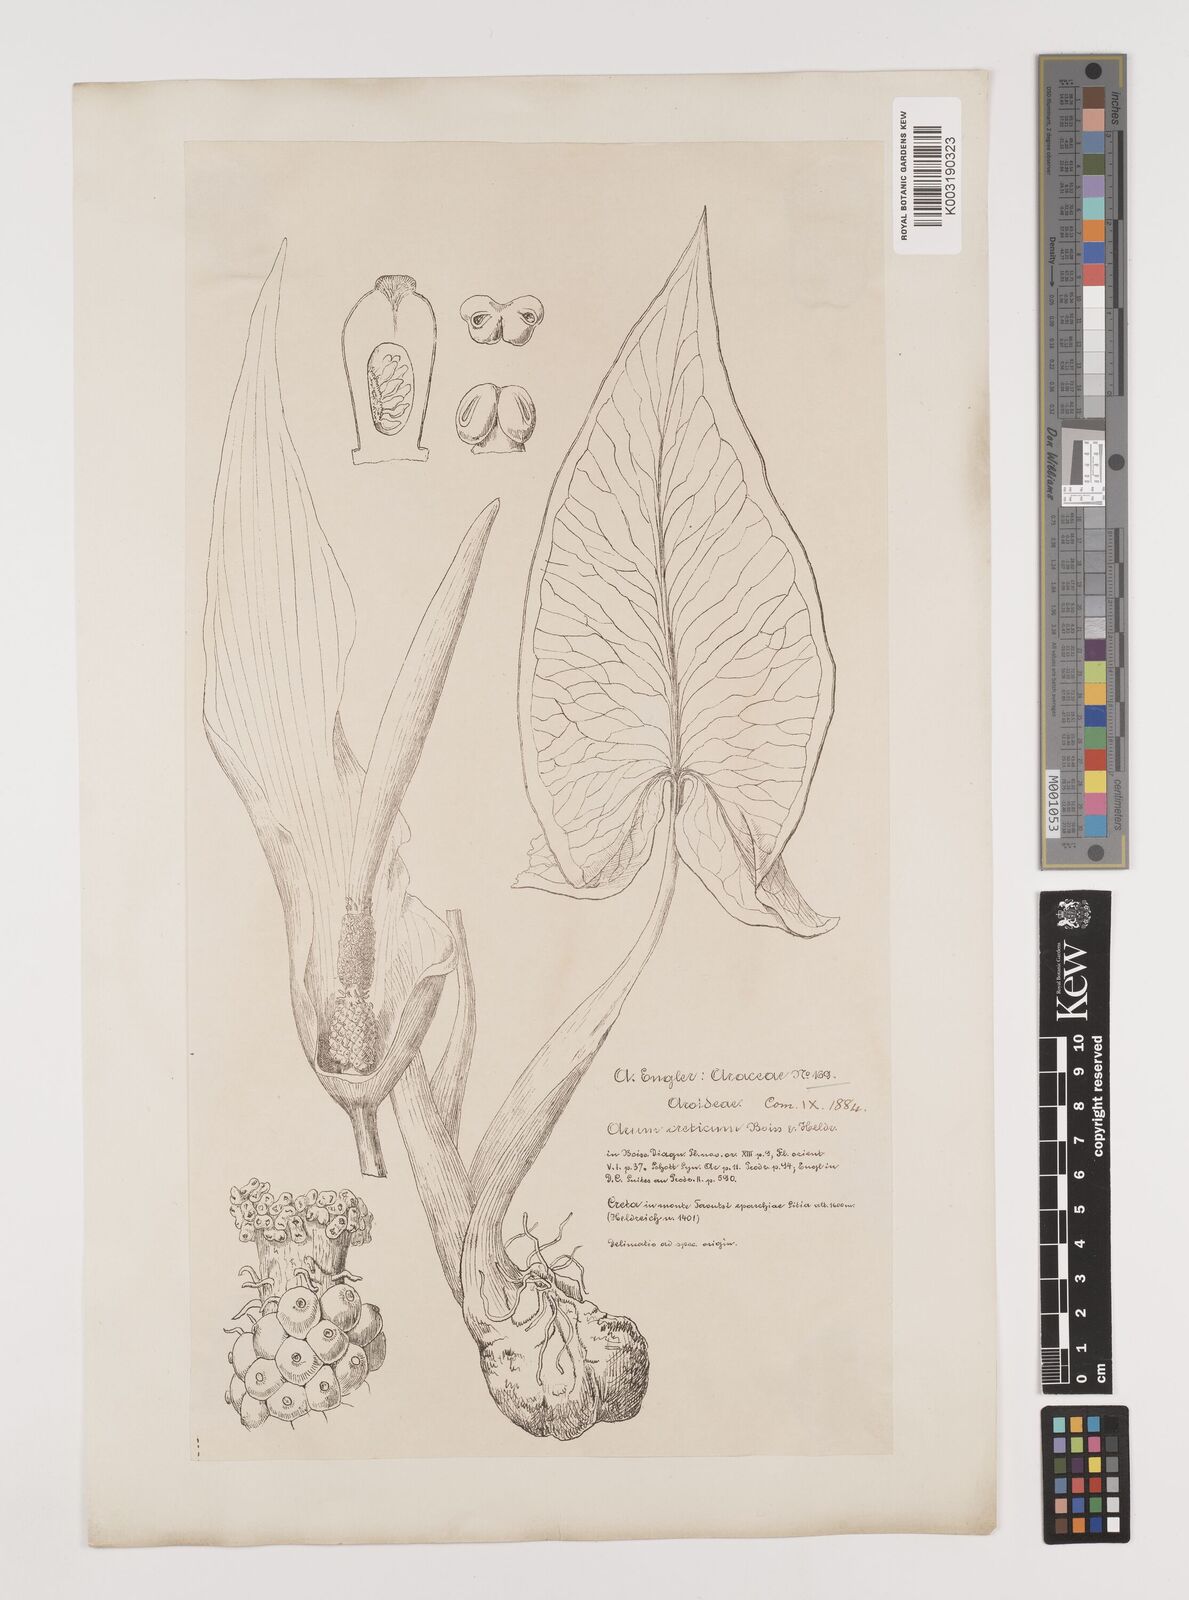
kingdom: Plantae
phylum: Tracheophyta
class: Liliopsida
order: Alismatales
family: Araceae
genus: Arum
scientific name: Arum creticum
